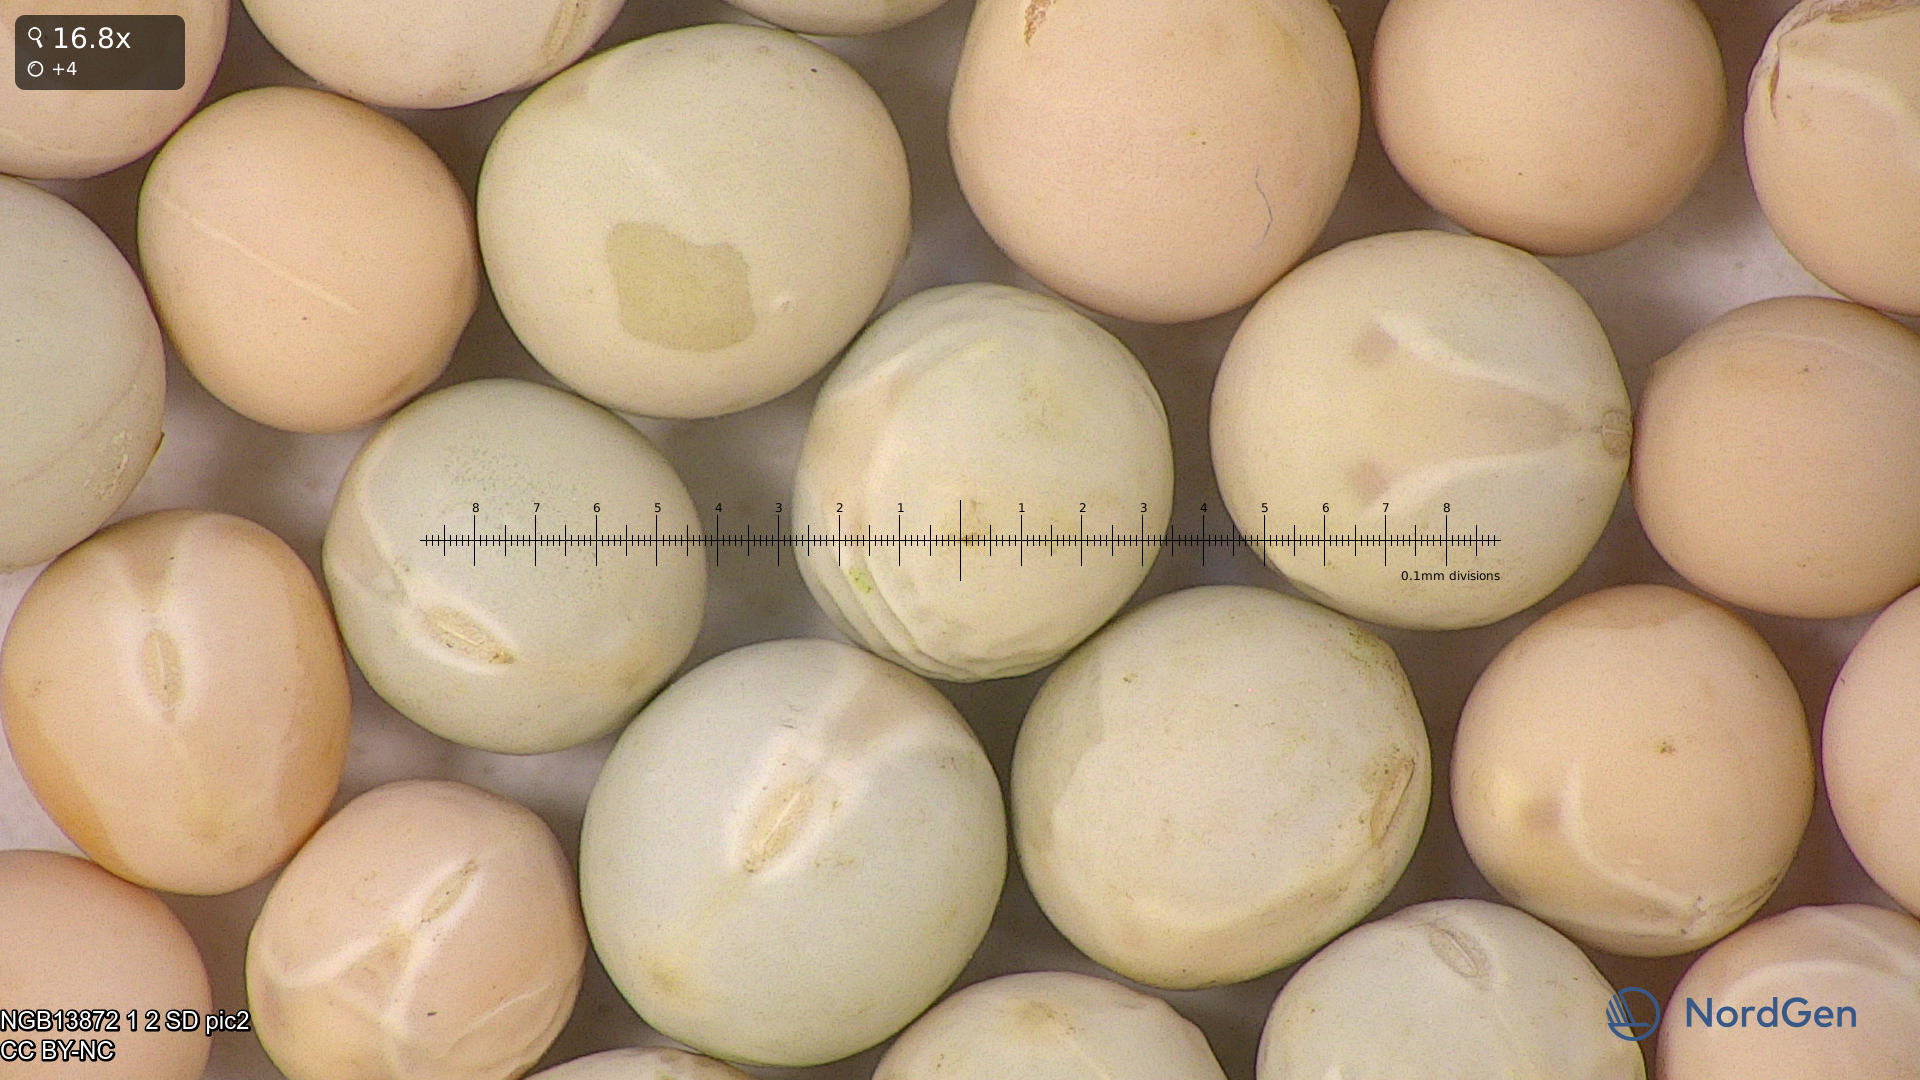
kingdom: Plantae
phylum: Tracheophyta
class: Magnoliopsida
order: Fabales
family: Fabaceae
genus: Lathyrus
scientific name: Lathyrus oleraceus
